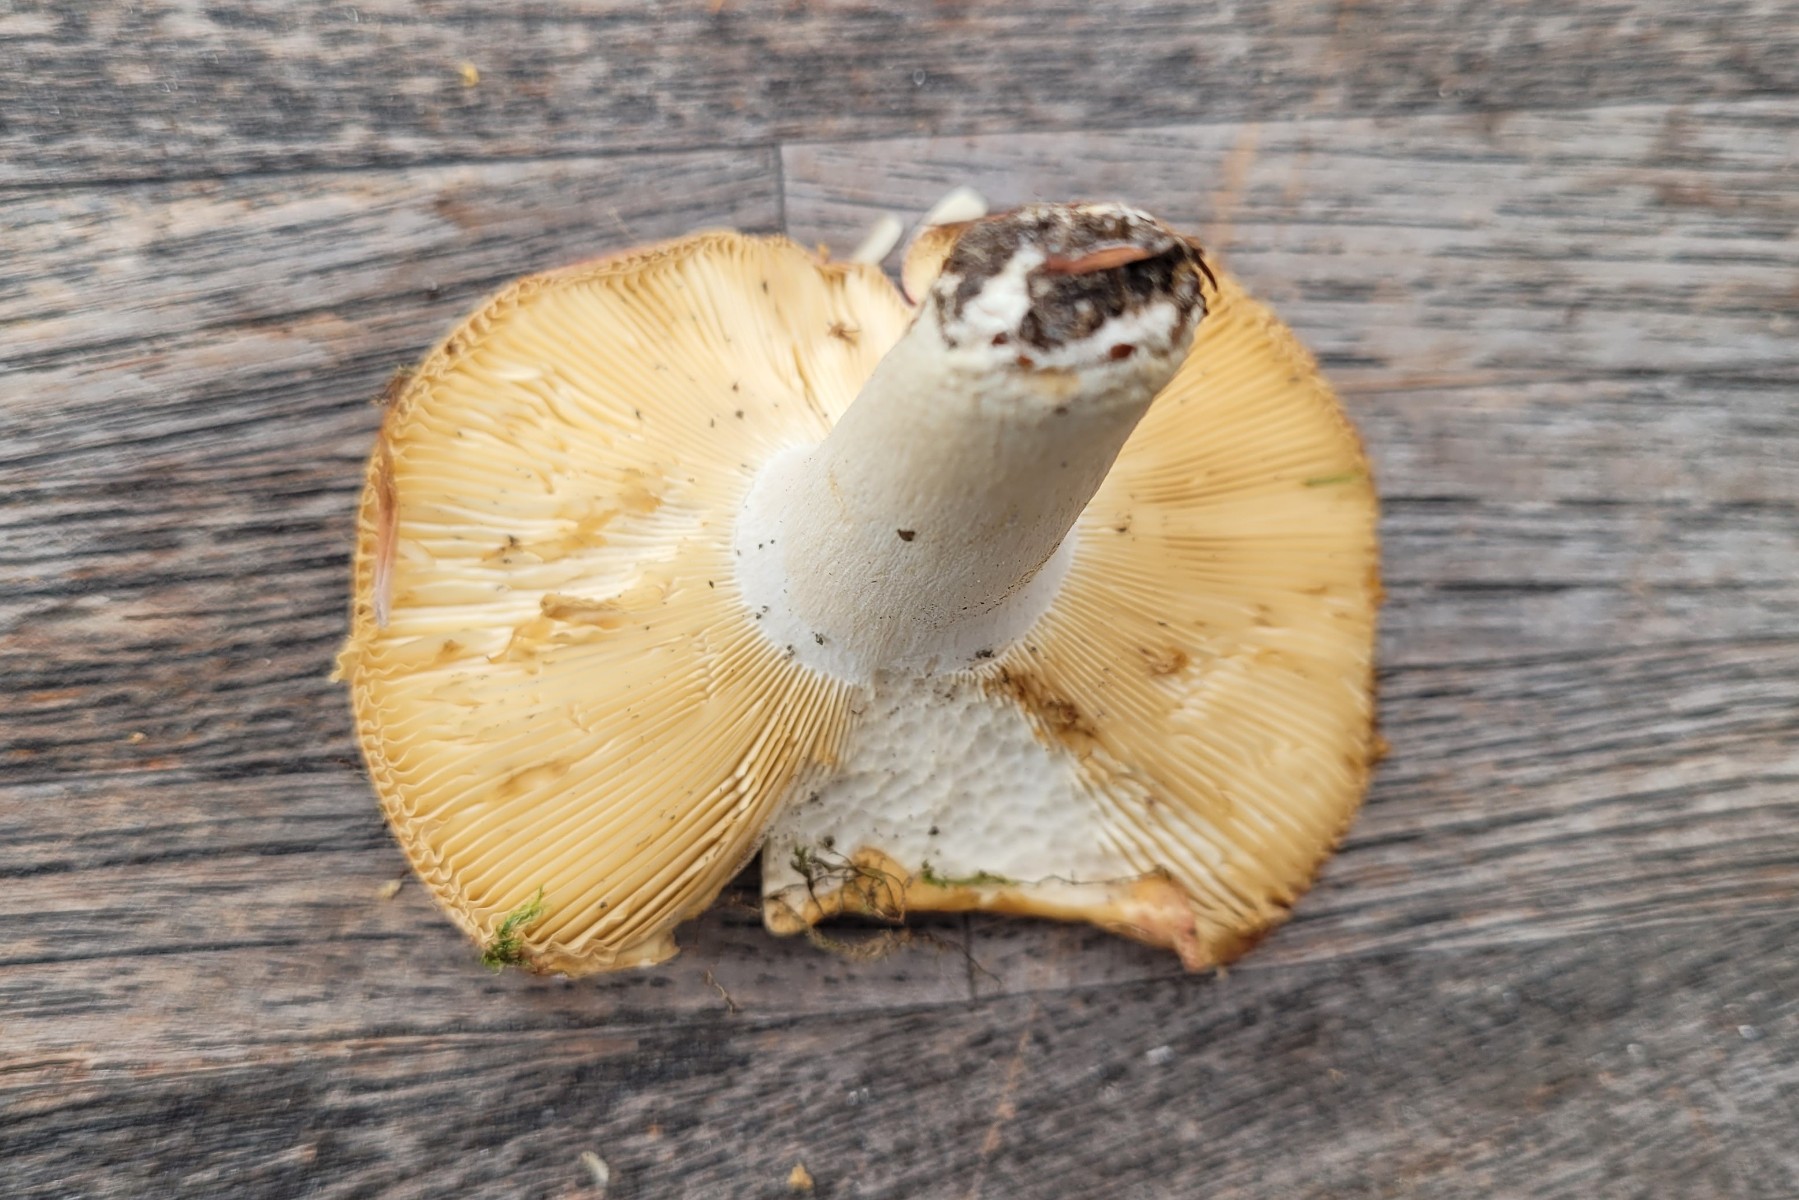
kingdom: Fungi
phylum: Basidiomycota
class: Agaricomycetes
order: Russulales
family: Russulaceae
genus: Russula
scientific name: Russula curtipes
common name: kortstokket skørhat
